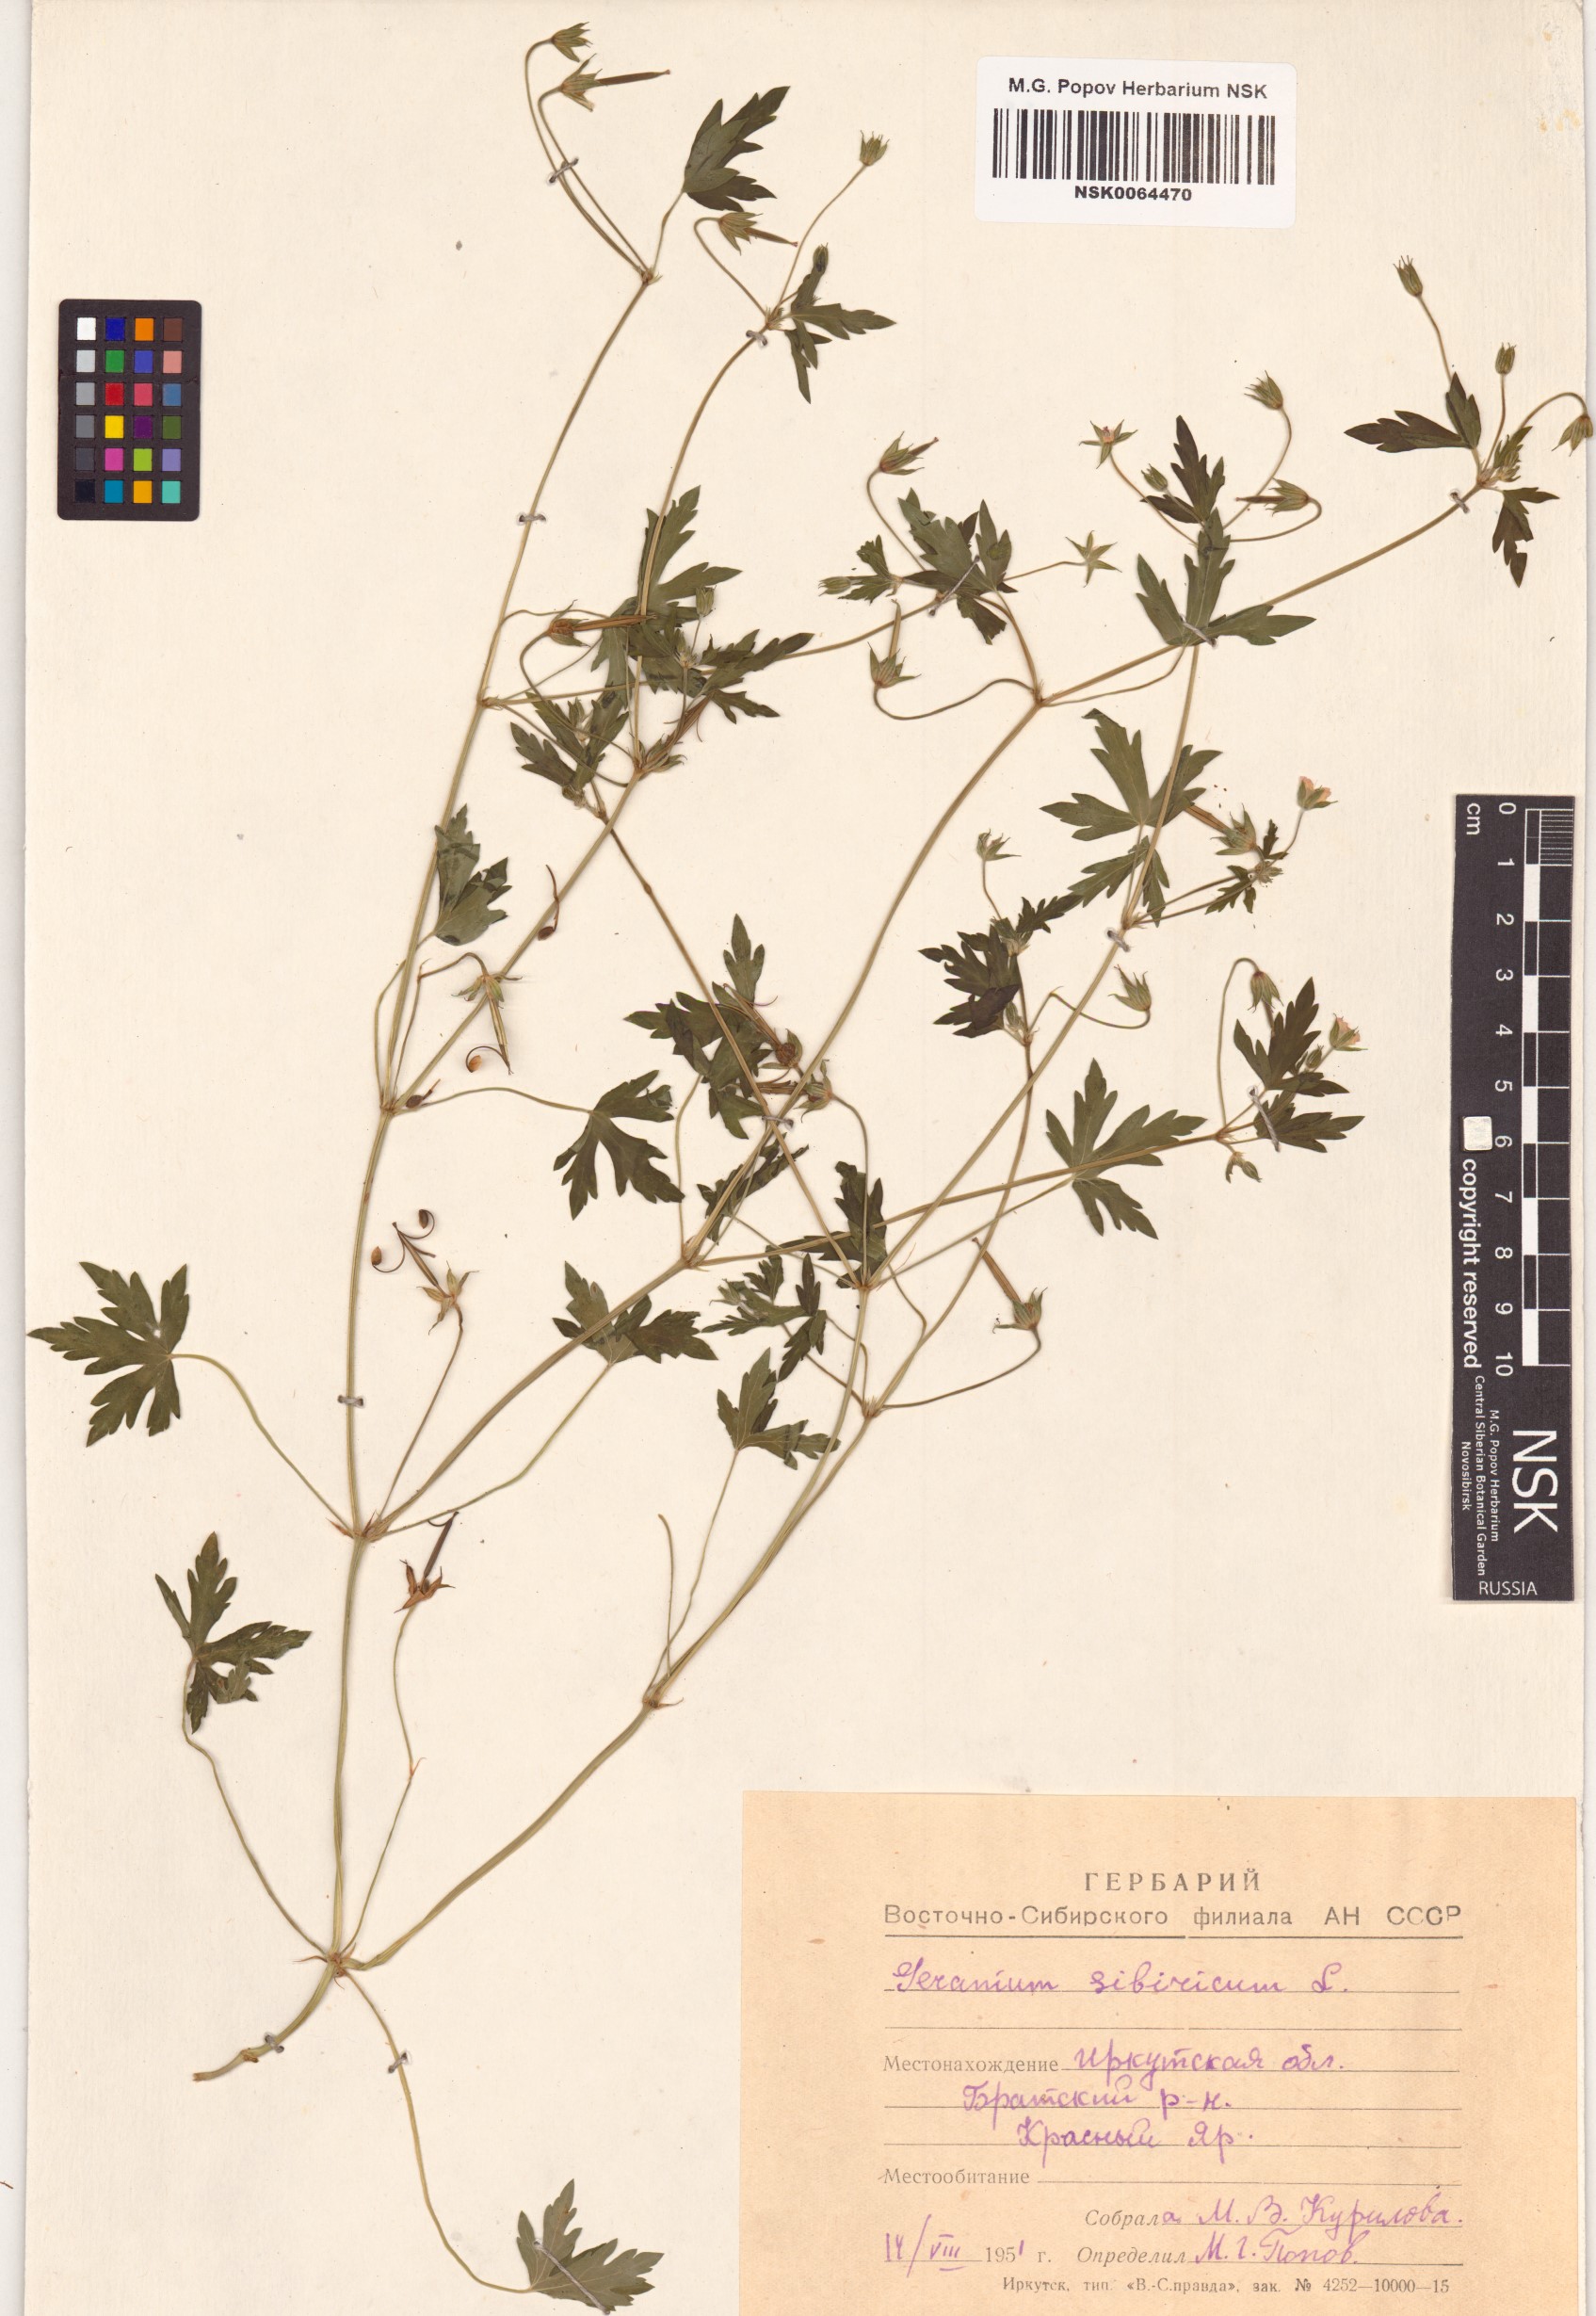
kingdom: Plantae
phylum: Tracheophyta
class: Magnoliopsida
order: Geraniales
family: Geraniaceae
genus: Geranium
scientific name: Geranium sibiricum
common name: Siberian crane's-bill
